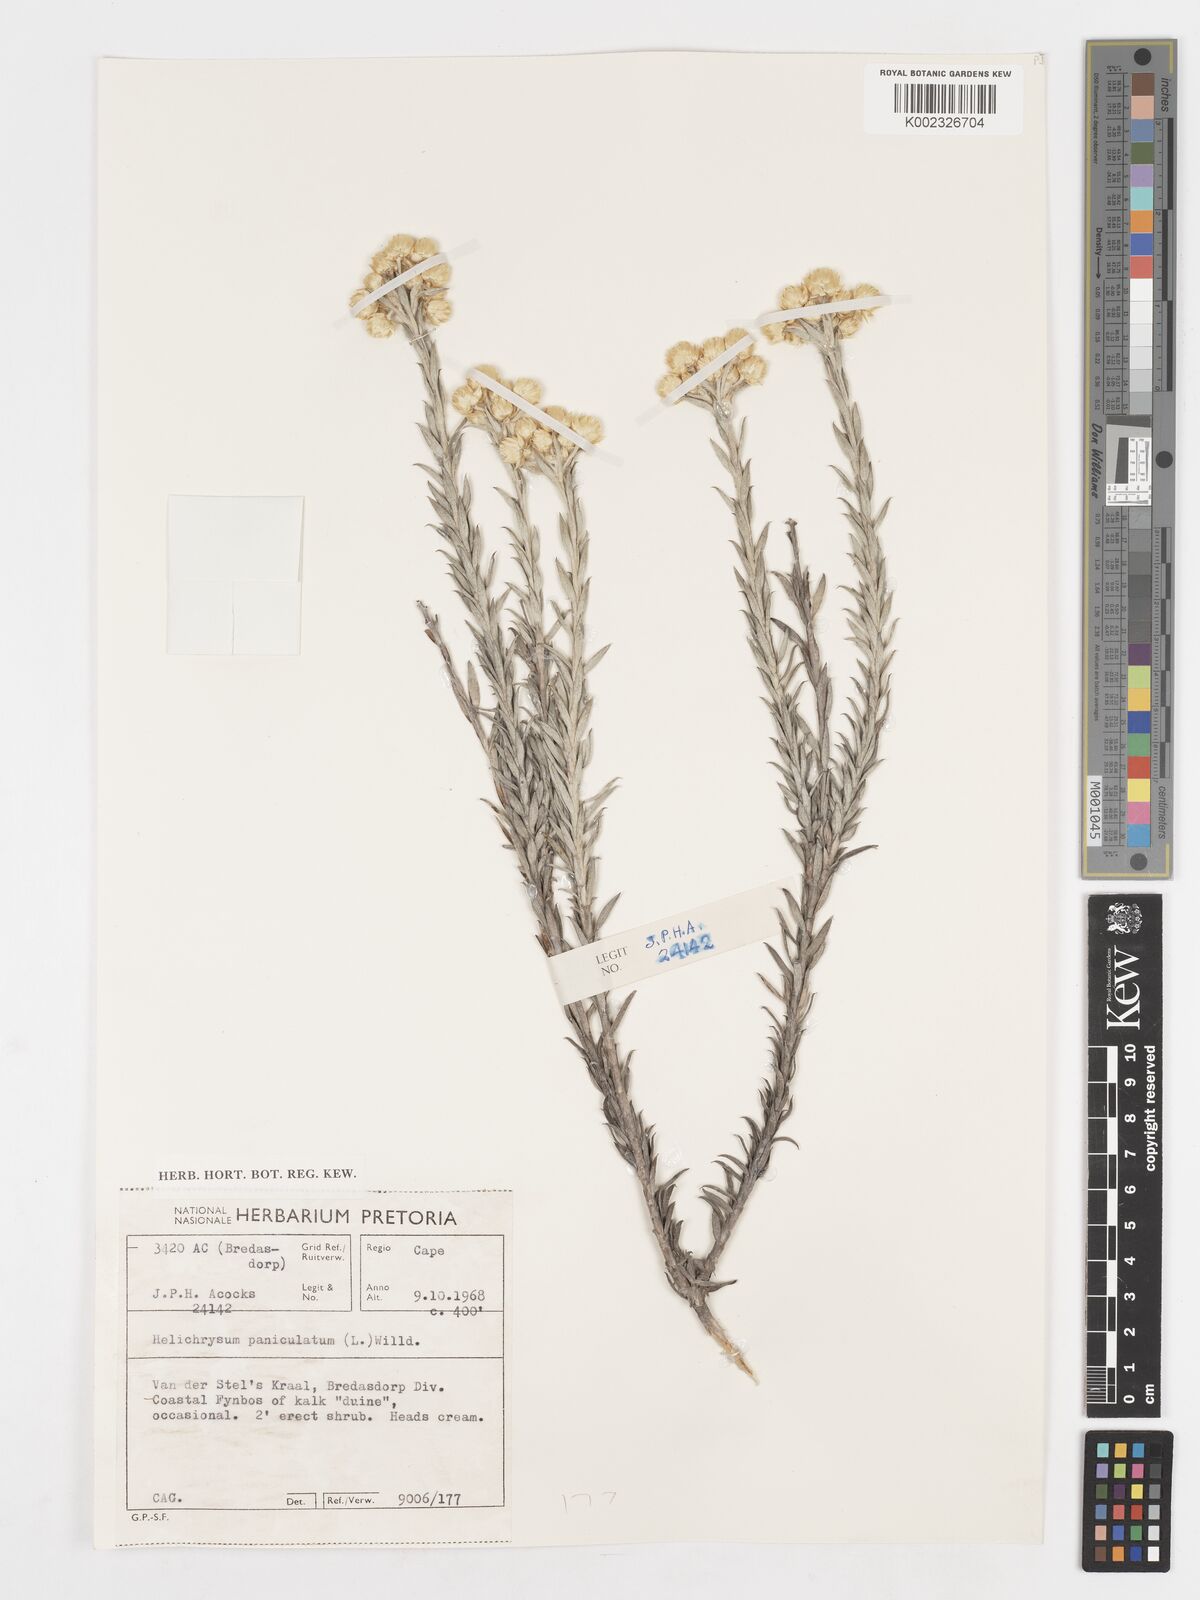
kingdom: Plantae
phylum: Tracheophyta
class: Magnoliopsida
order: Asterales
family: Asteraceae
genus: Achyranthemum
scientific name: Achyranthemum paniculatum
